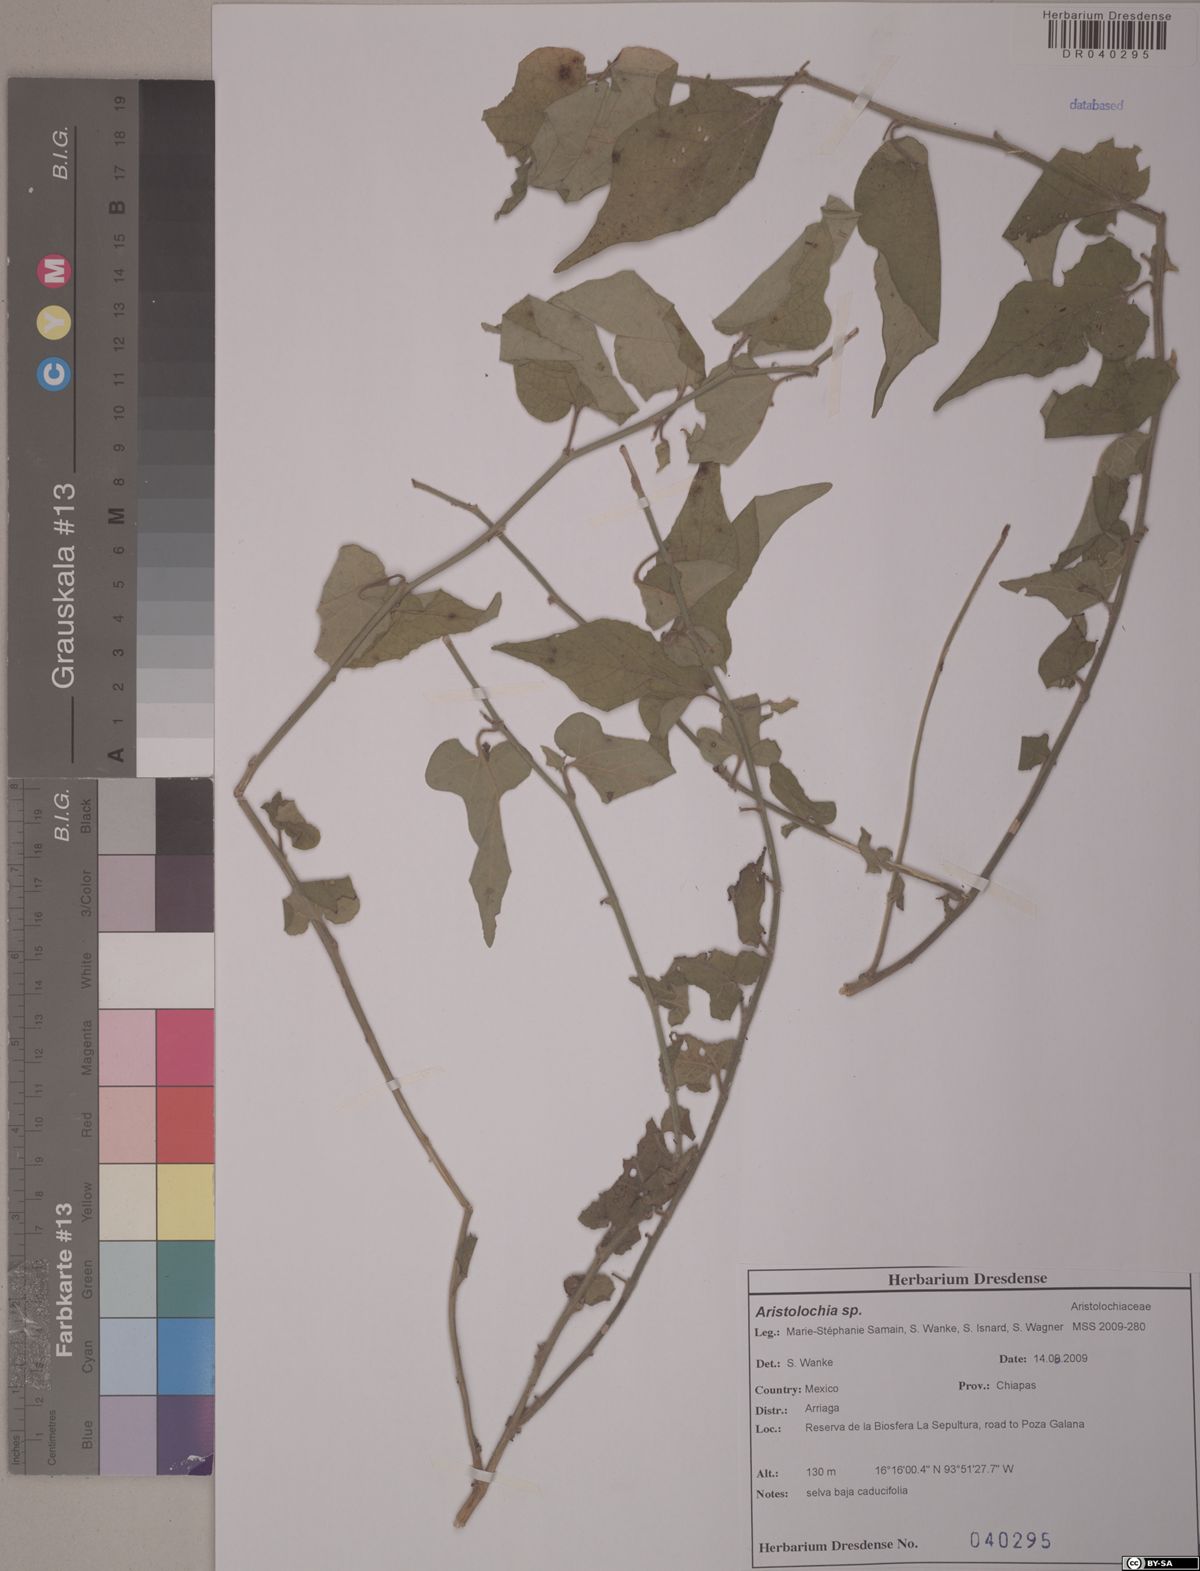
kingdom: Plantae
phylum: Tracheophyta
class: Magnoliopsida
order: Piperales
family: Aristolochiaceae
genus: Aristolochia
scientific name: Aristolochia
